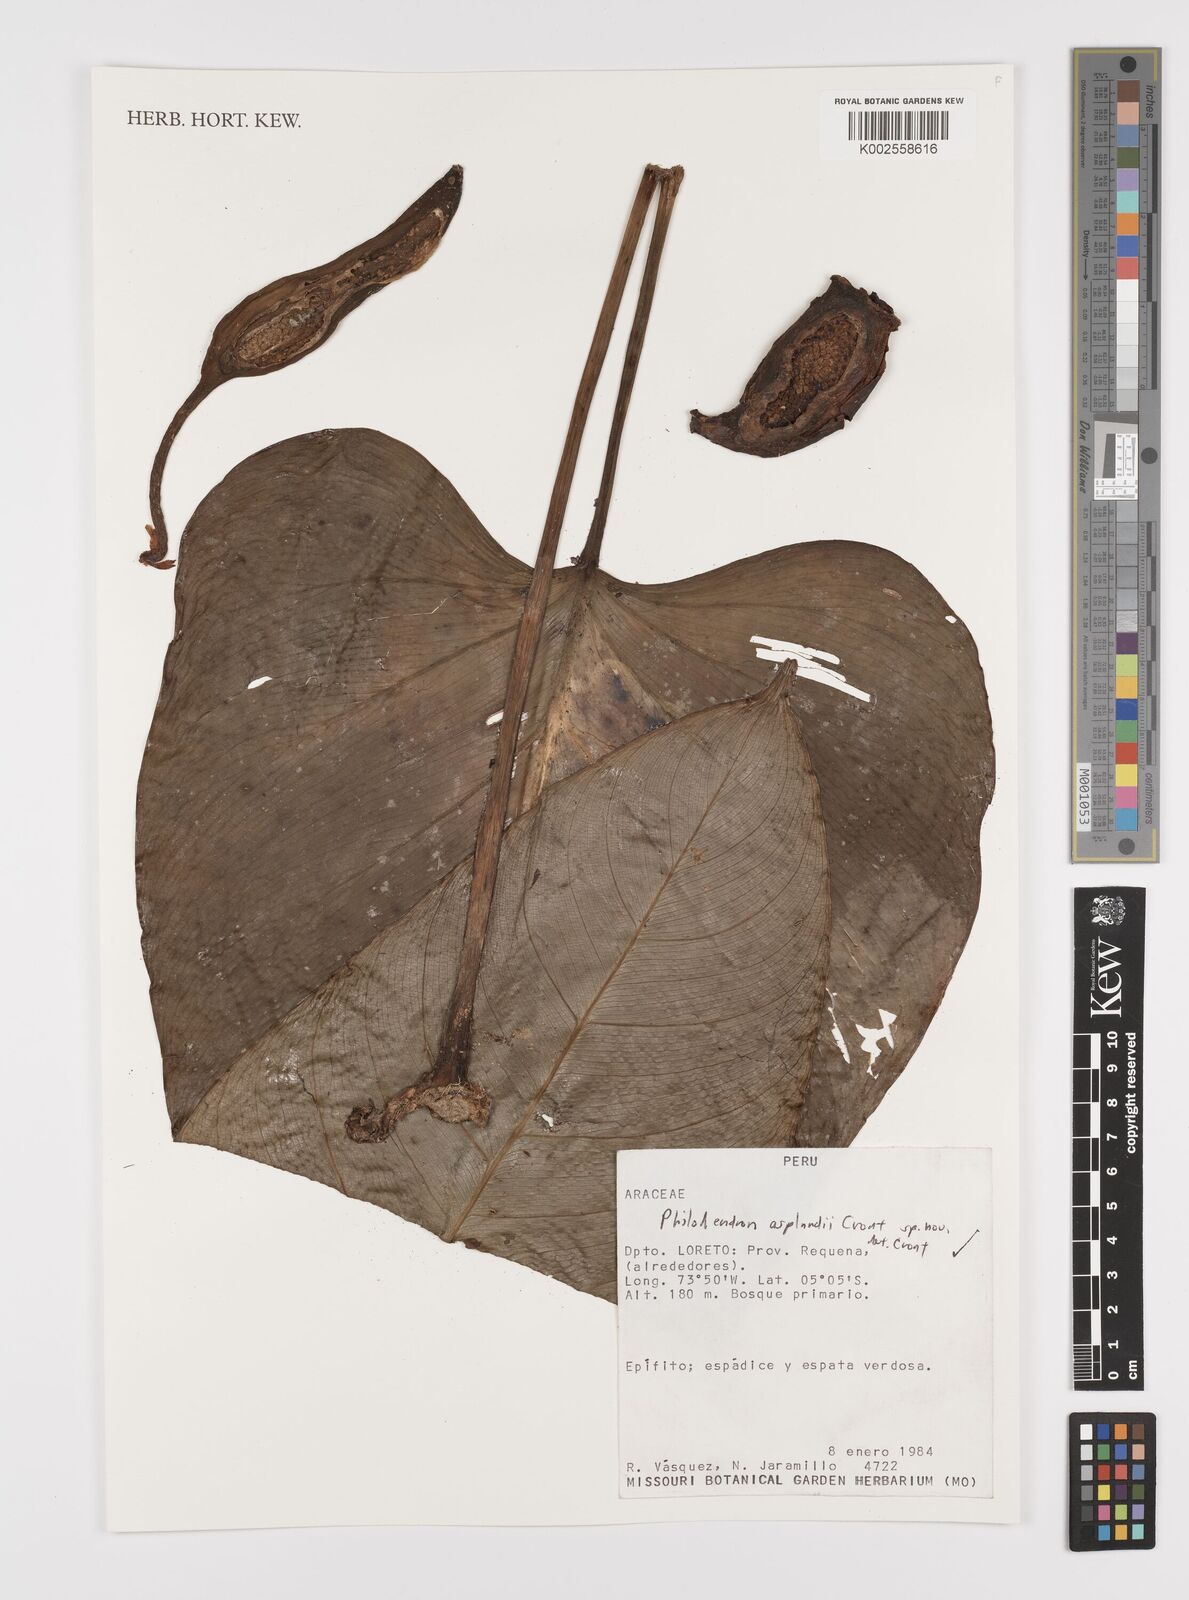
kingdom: Plantae
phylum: Tracheophyta
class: Liliopsida
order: Alismatales
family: Araceae
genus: Philodendron
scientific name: Philodendron asplundii
